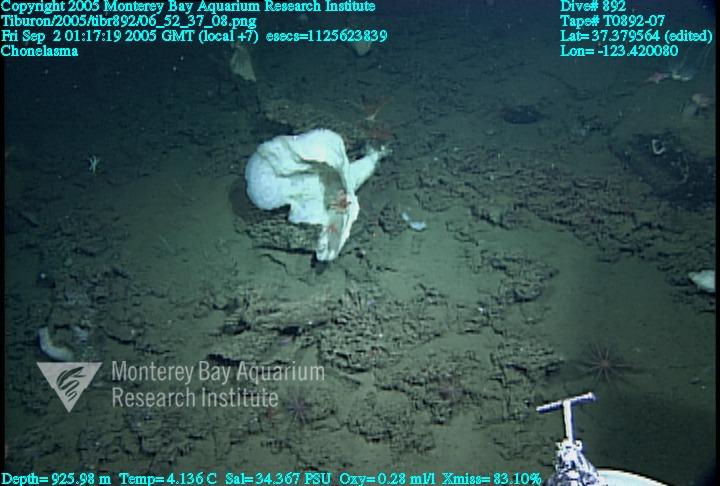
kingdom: Animalia
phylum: Porifera
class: Hexactinellida
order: Sceptrulophora
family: Euretidae
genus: Chonelasma
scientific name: Chonelasma
